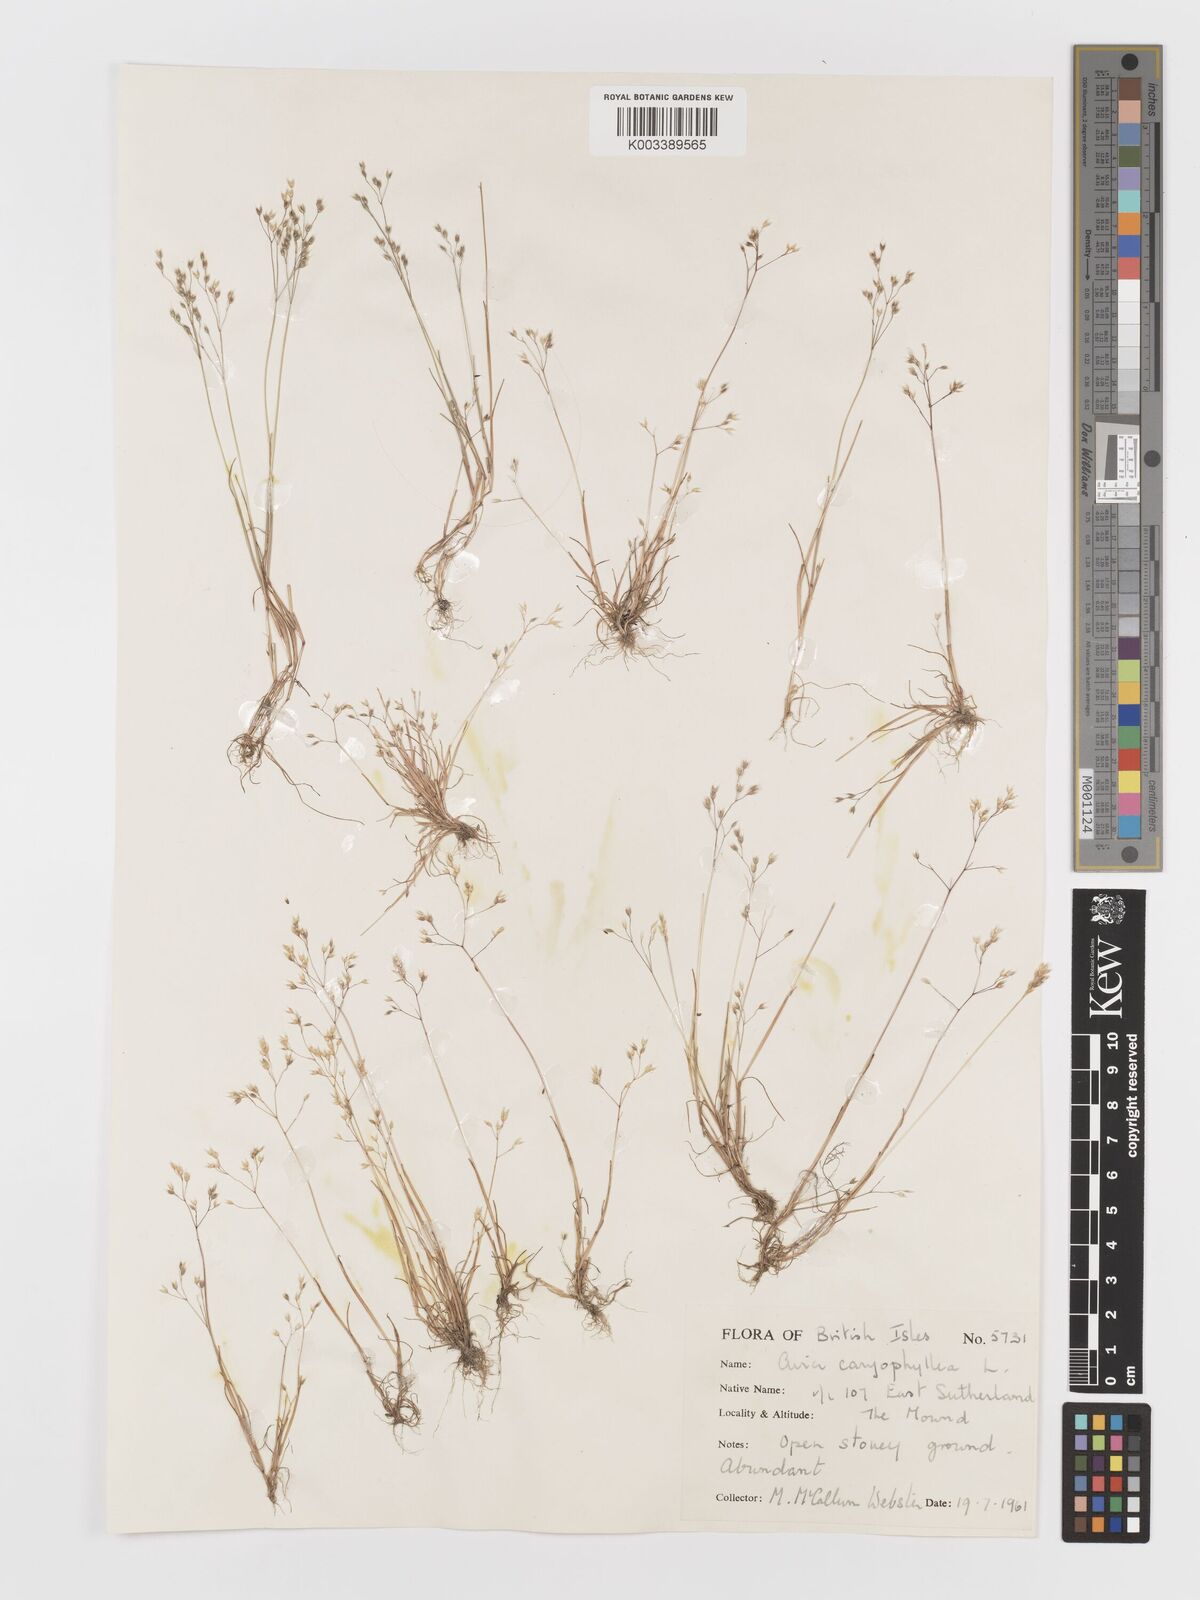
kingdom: Plantae
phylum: Tracheophyta
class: Liliopsida
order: Poales
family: Poaceae
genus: Aira
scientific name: Aira caryophyllea
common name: Silver hairgrass
